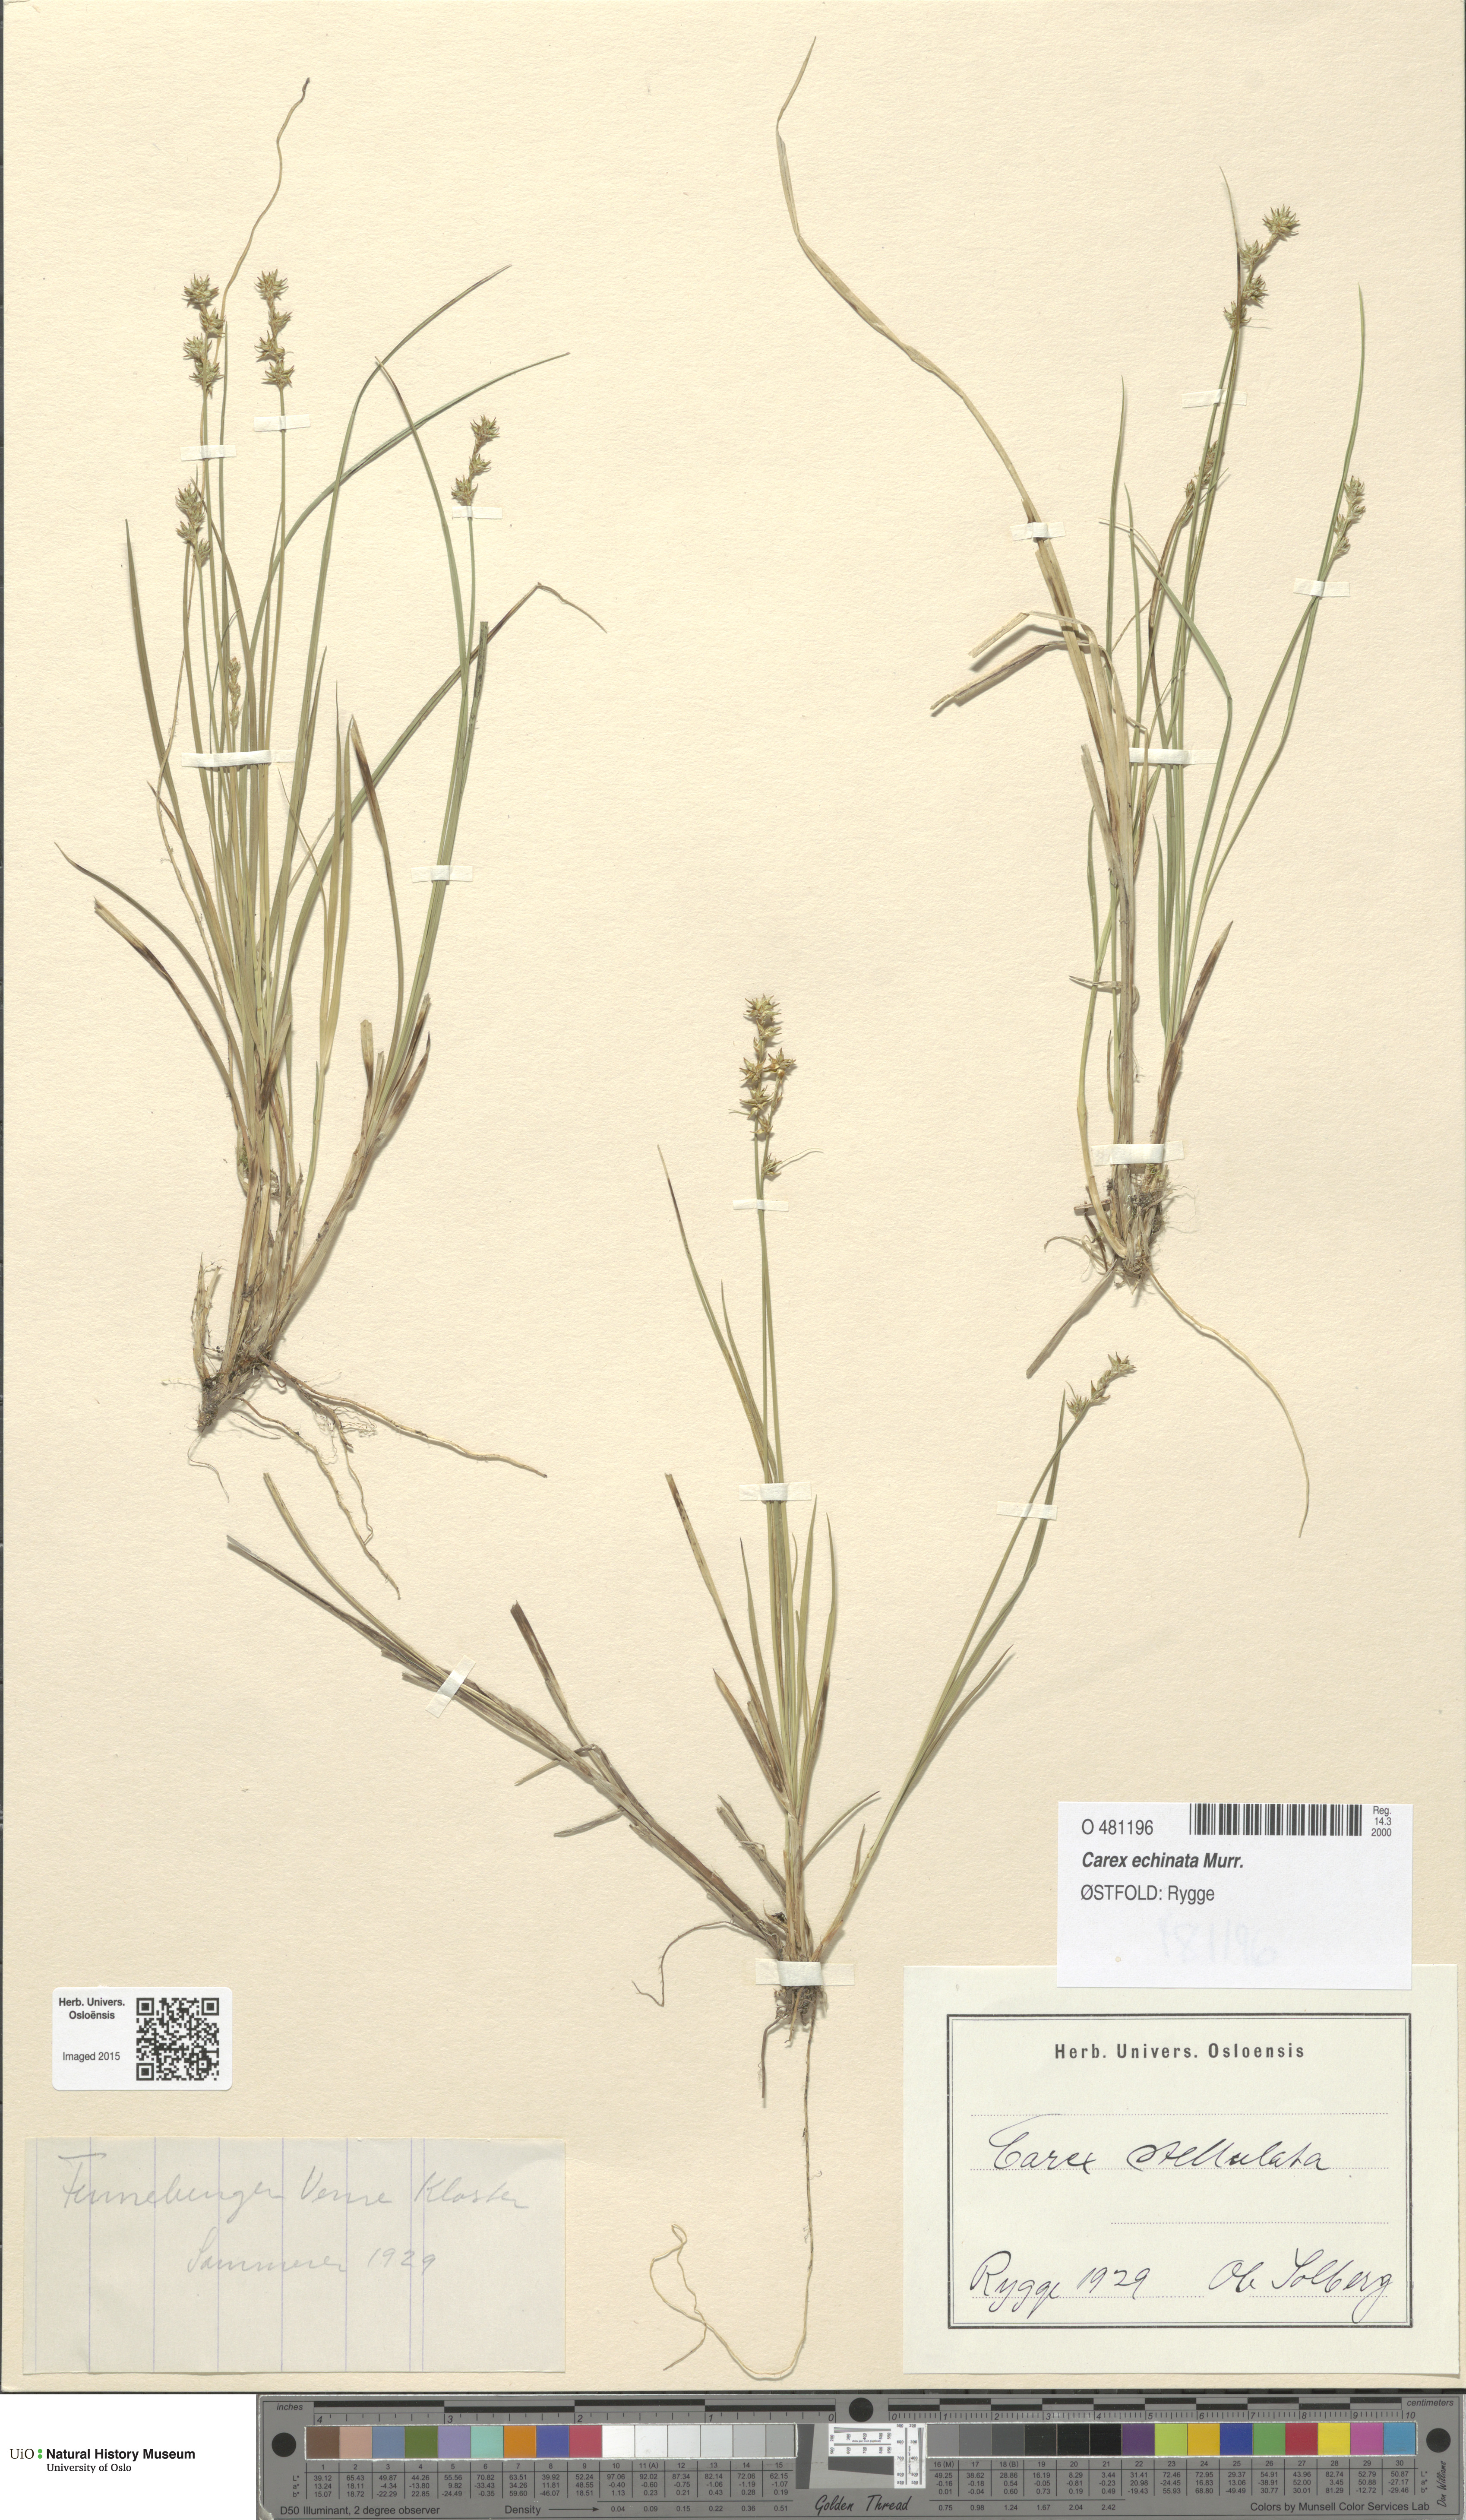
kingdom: Plantae
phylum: Tracheophyta
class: Liliopsida
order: Poales
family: Cyperaceae
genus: Carex
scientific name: Carex echinata
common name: Star sedge
